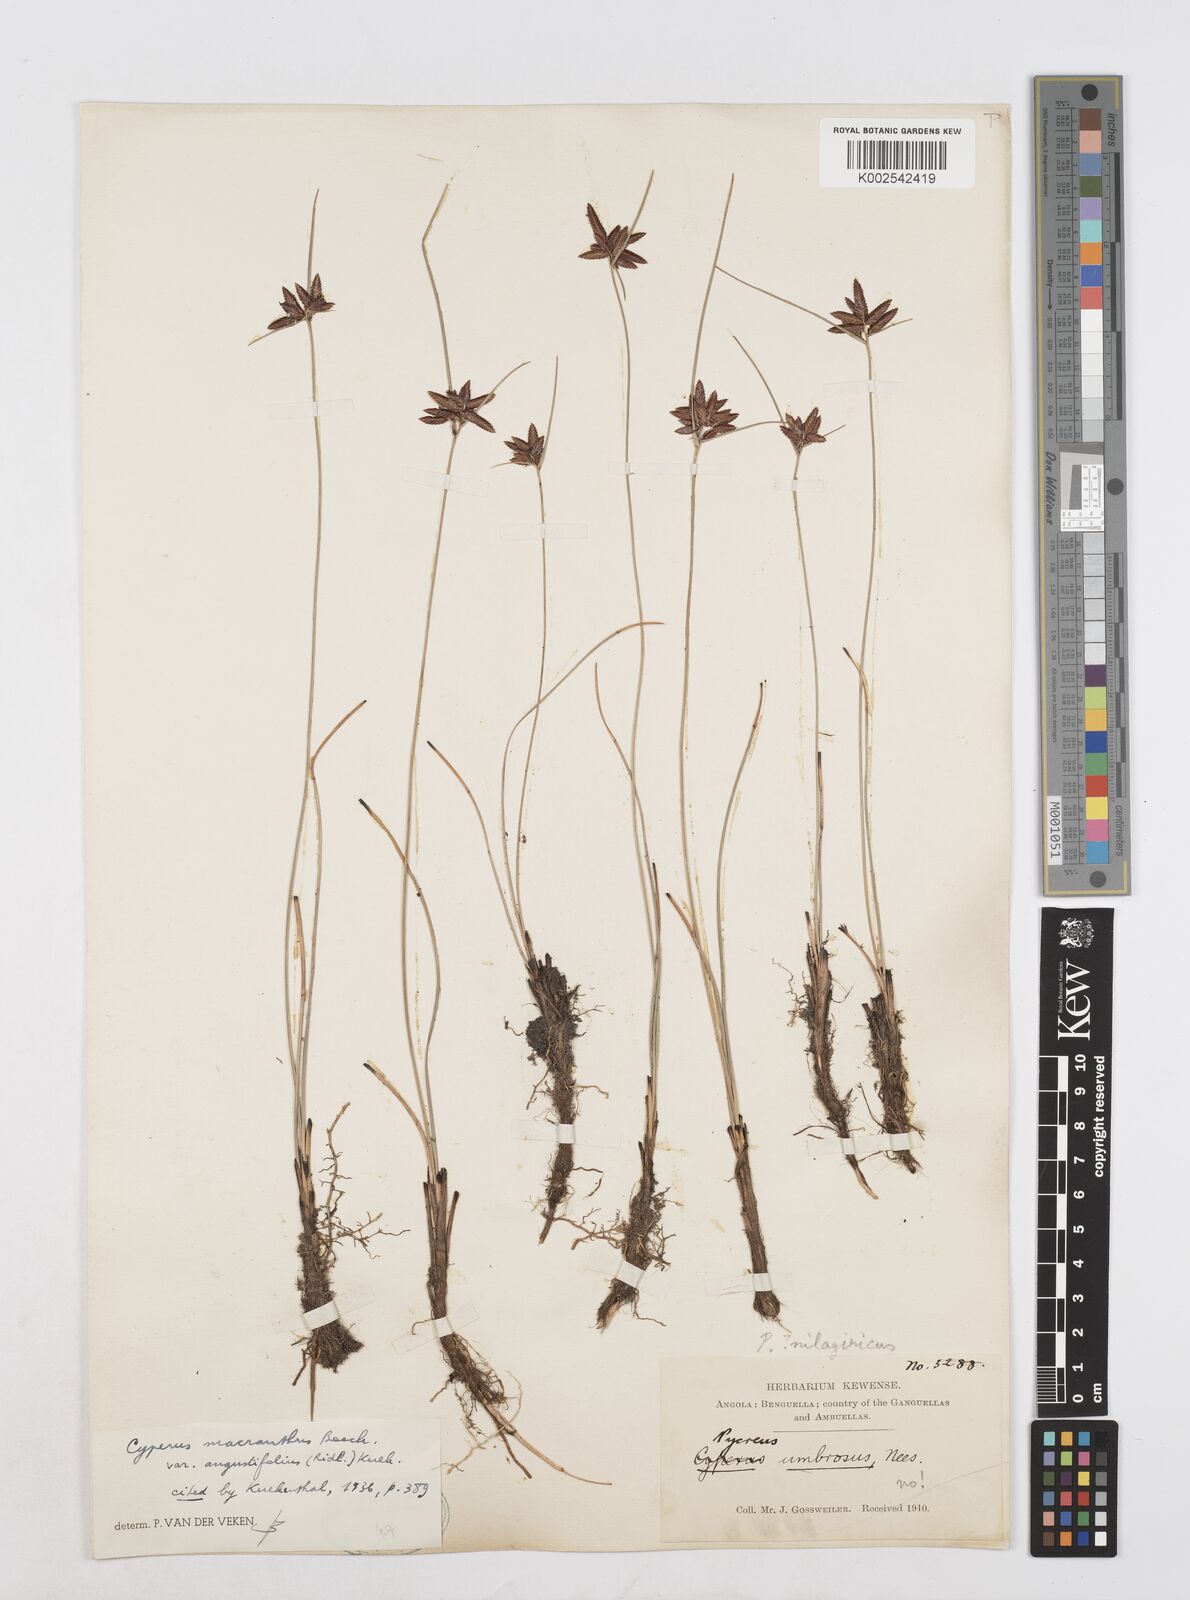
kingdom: Plantae
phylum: Tracheophyta
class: Liliopsida
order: Poales
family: Cyperaceae
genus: Cyperus
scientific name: Cyperus nigricans
